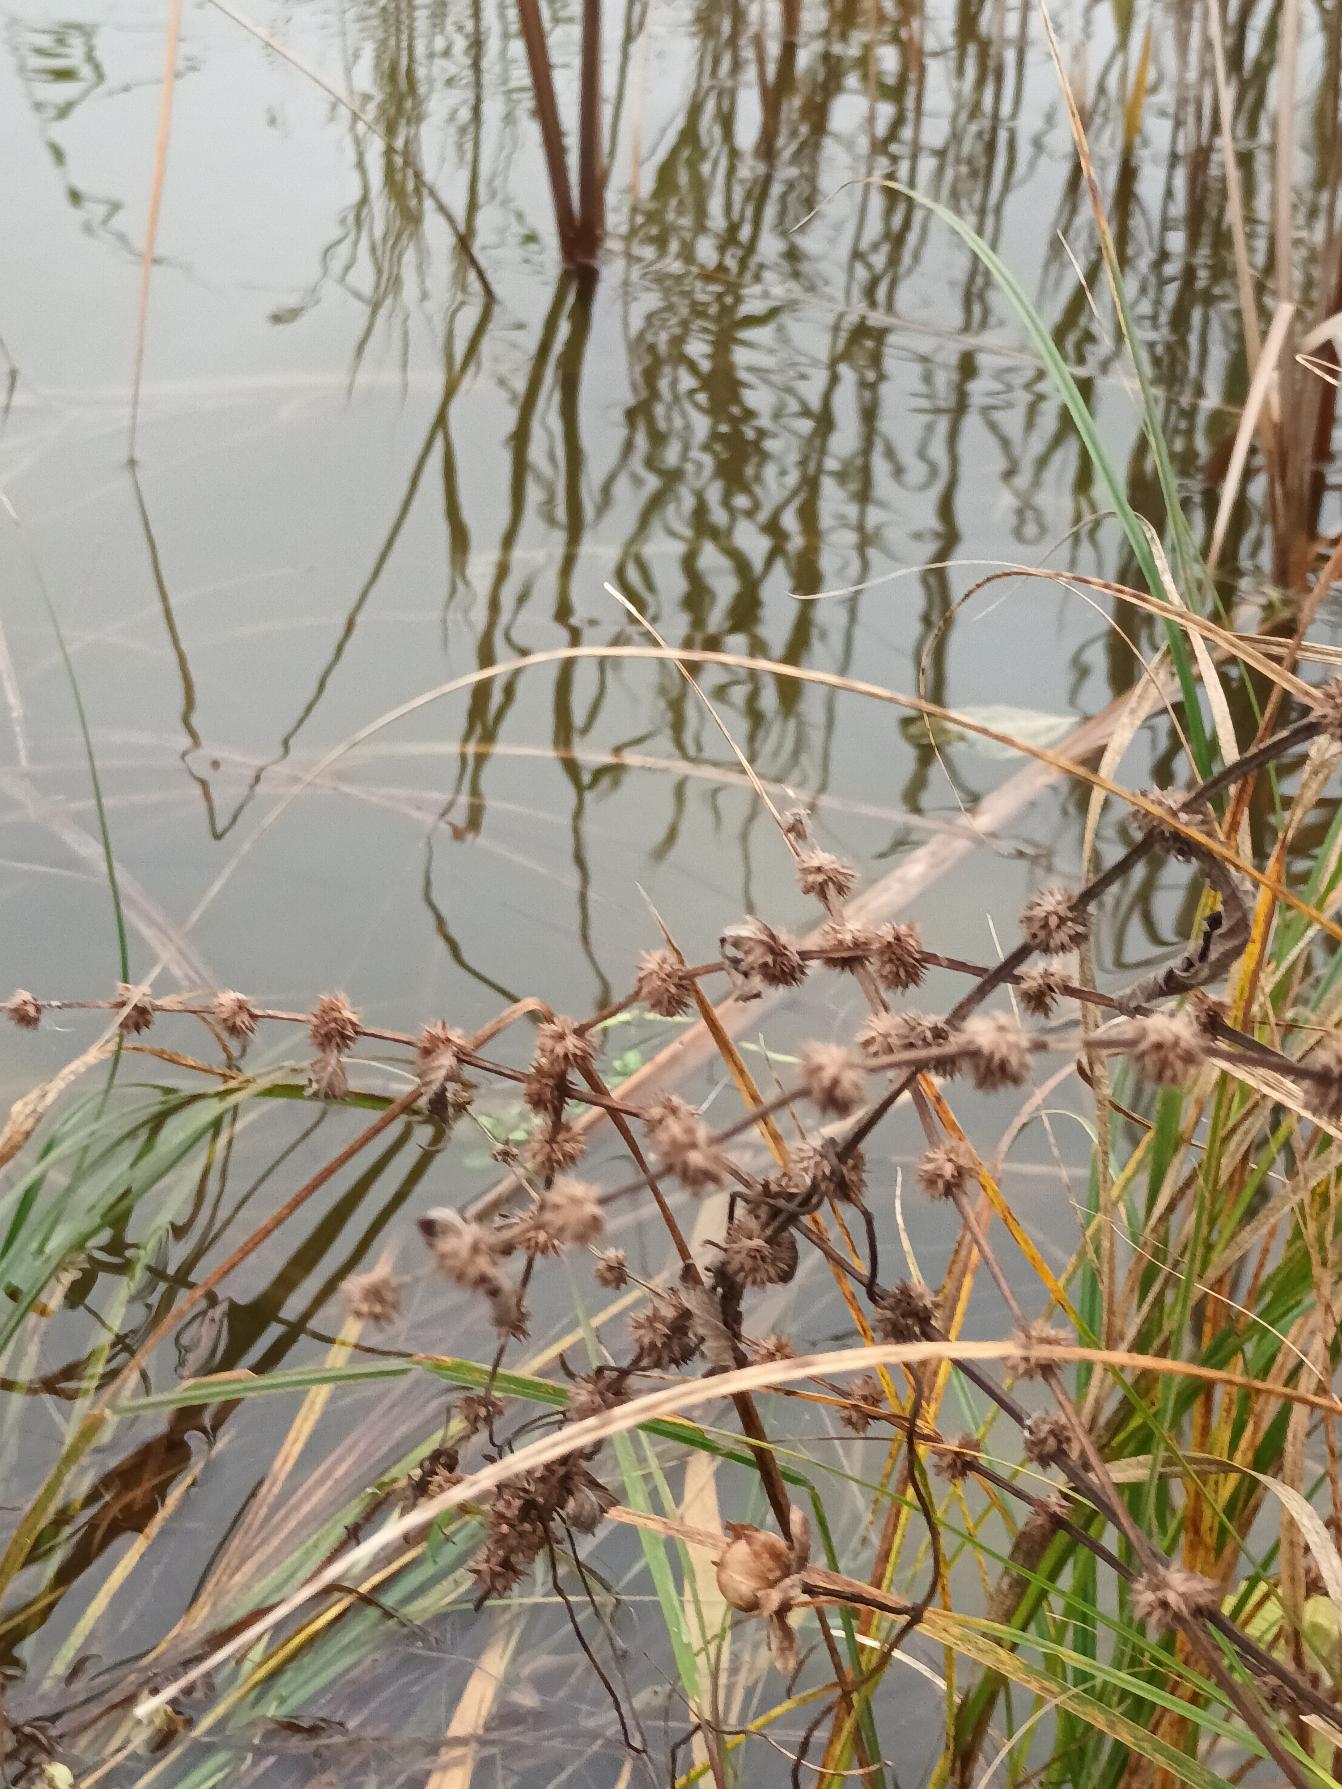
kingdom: Plantae
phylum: Tracheophyta
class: Magnoliopsida
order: Lamiales
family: Lamiaceae
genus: Lycopus
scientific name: Lycopus europaeus
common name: Sværtevæld
